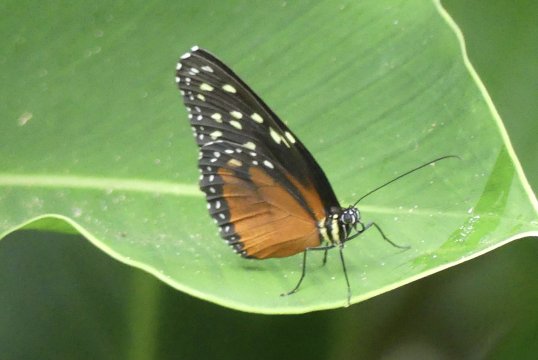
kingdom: Animalia
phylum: Arthropoda
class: Insecta
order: Lepidoptera
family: Nymphalidae
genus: Tithorea
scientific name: Tithorea tarricina
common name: Cream-spotted Tigerwing
